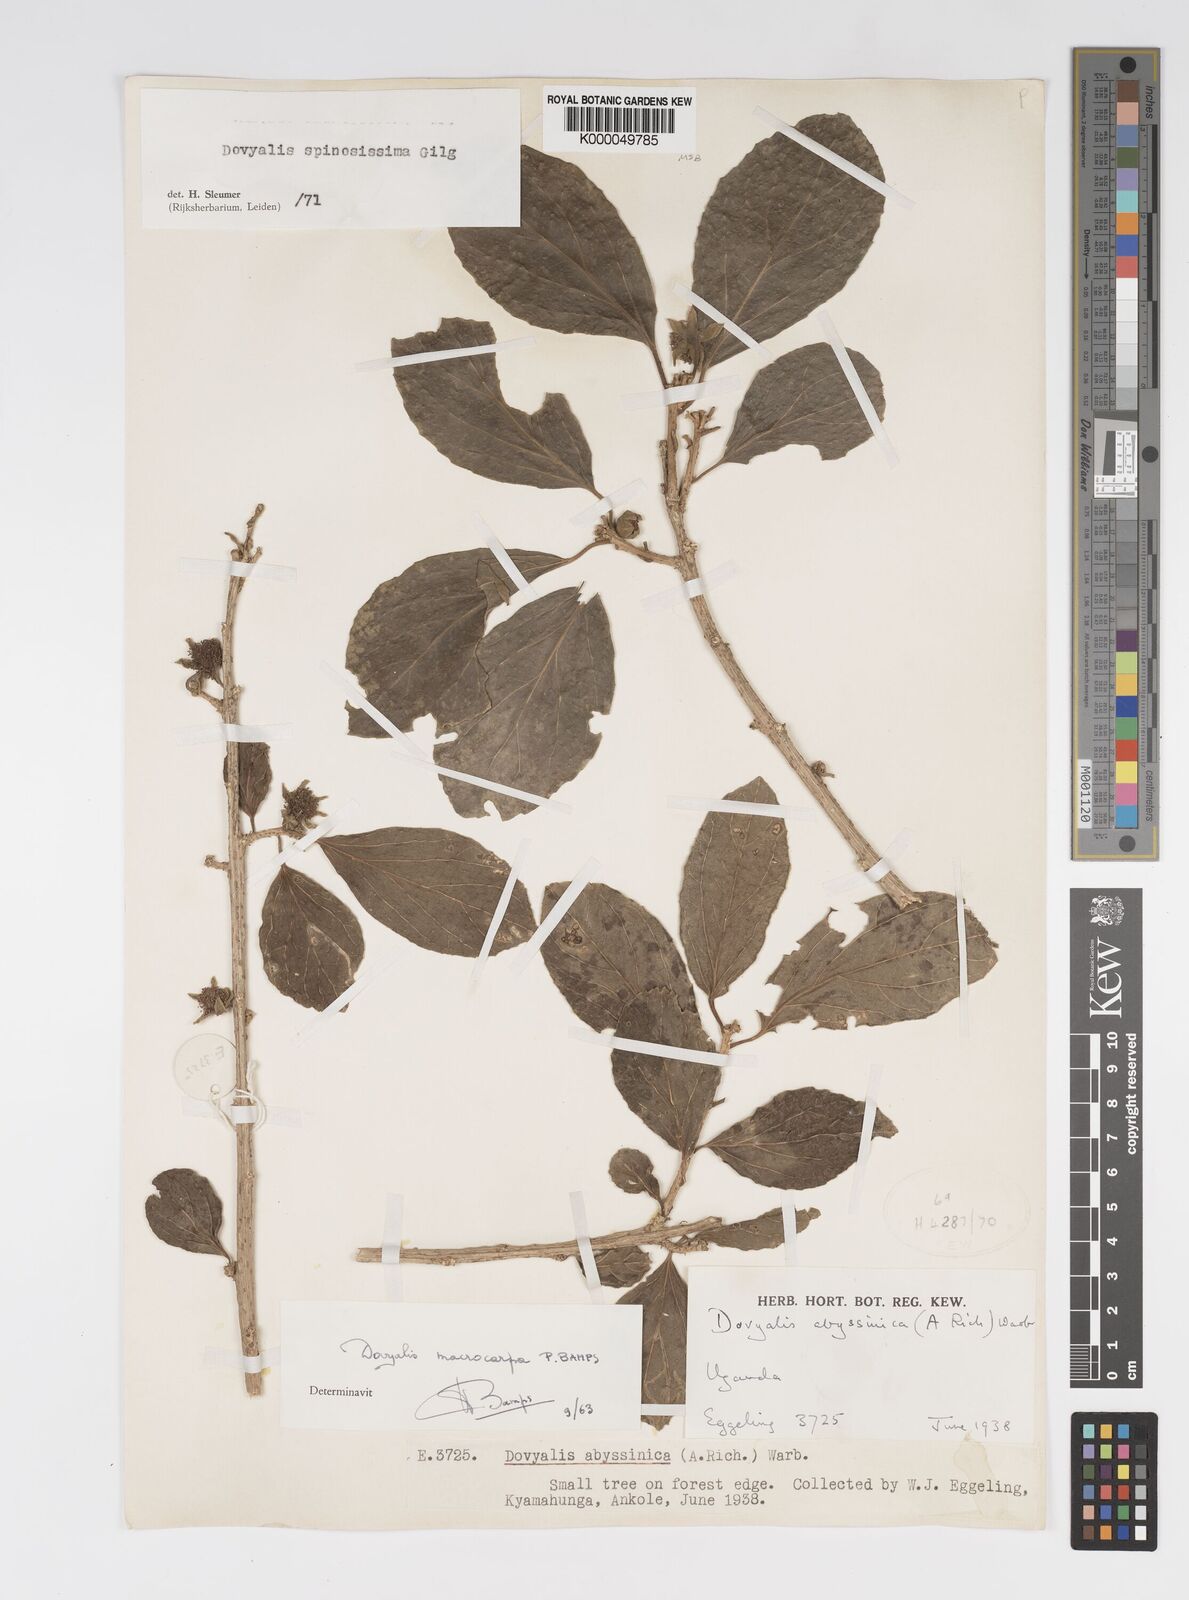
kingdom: Plantae
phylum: Tracheophyta
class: Magnoliopsida
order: Malpighiales
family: Salicaceae
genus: Dovyalis
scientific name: Dovyalis spinosissima
